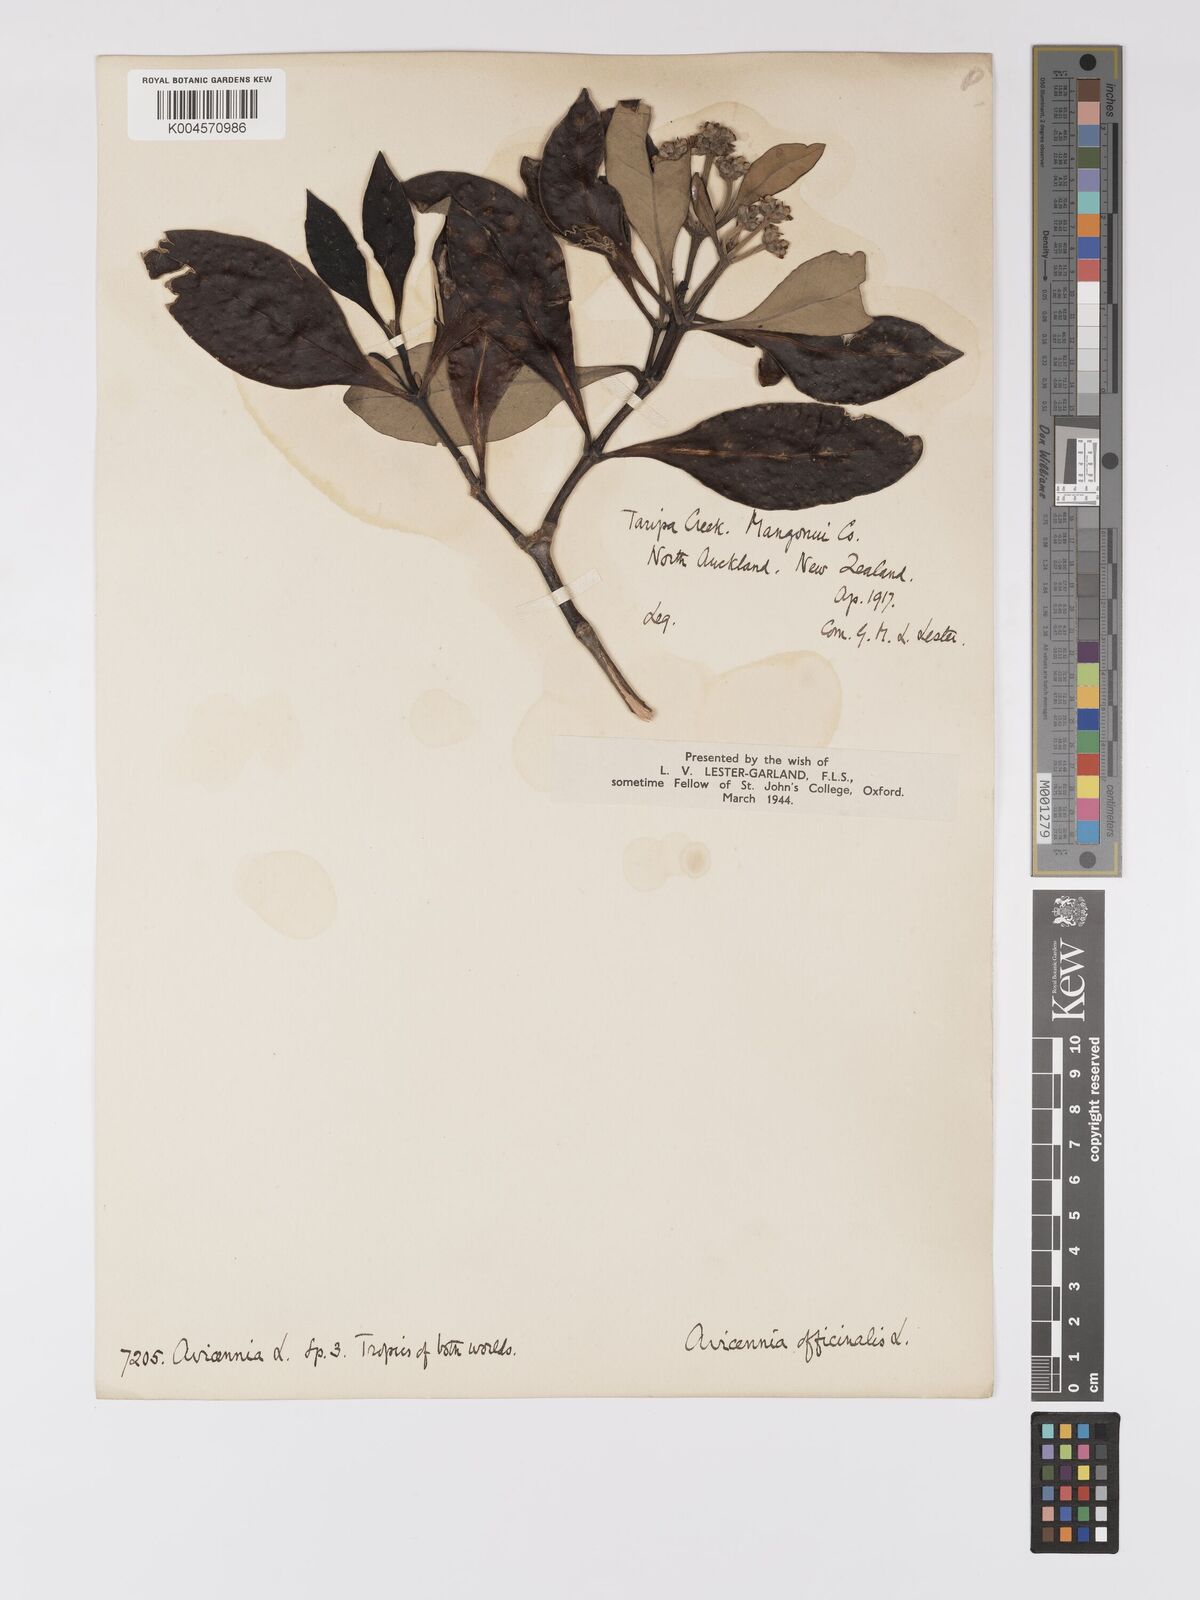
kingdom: Plantae
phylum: Tracheophyta
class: Magnoliopsida
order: Lamiales
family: Acanthaceae
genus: Avicennia
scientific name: Avicennia marina
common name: Gray mangrove
